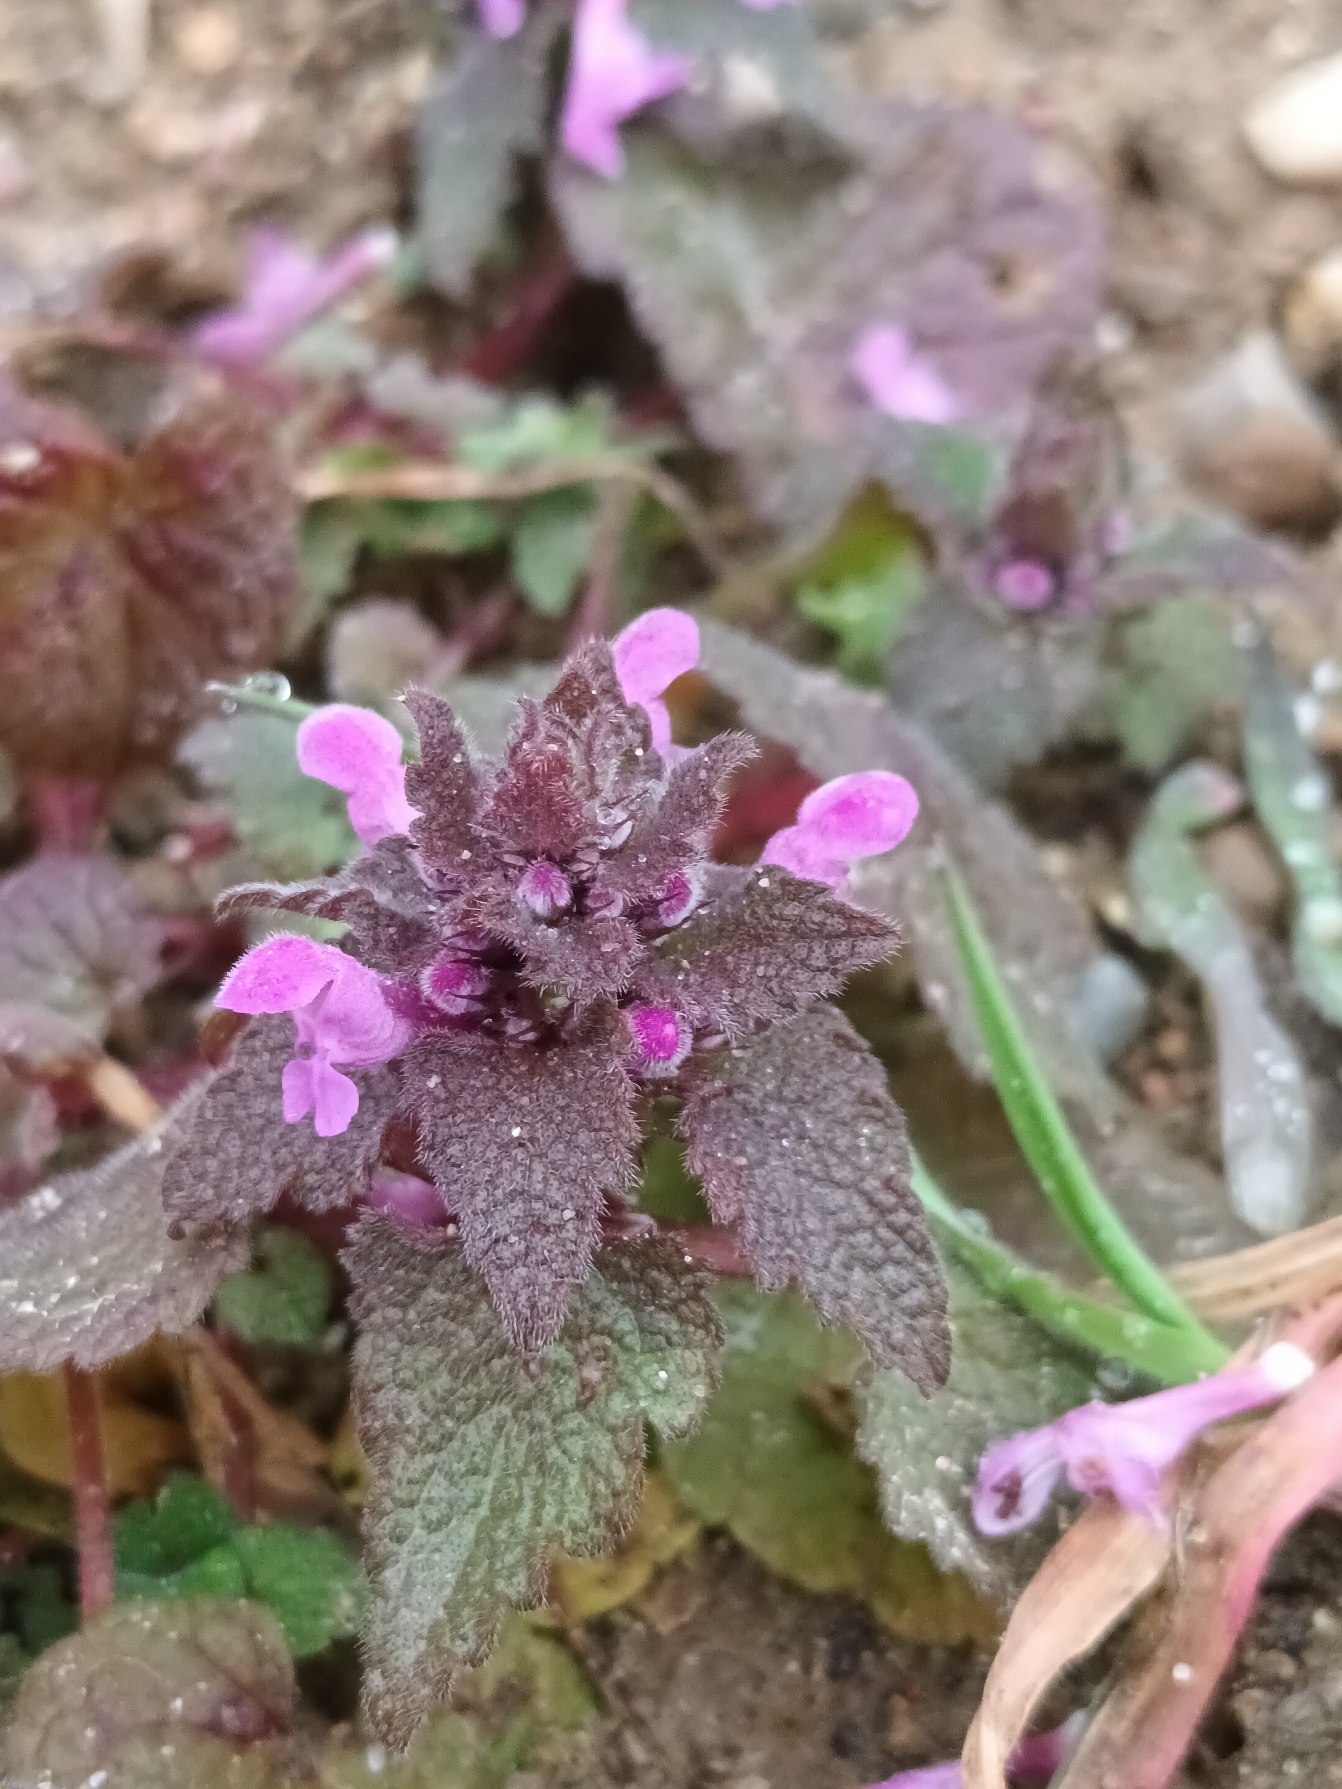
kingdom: Plantae
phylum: Tracheophyta
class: Magnoliopsida
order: Lamiales
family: Lamiaceae
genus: Lamium
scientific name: Lamium purpureum
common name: Rød tvetand
